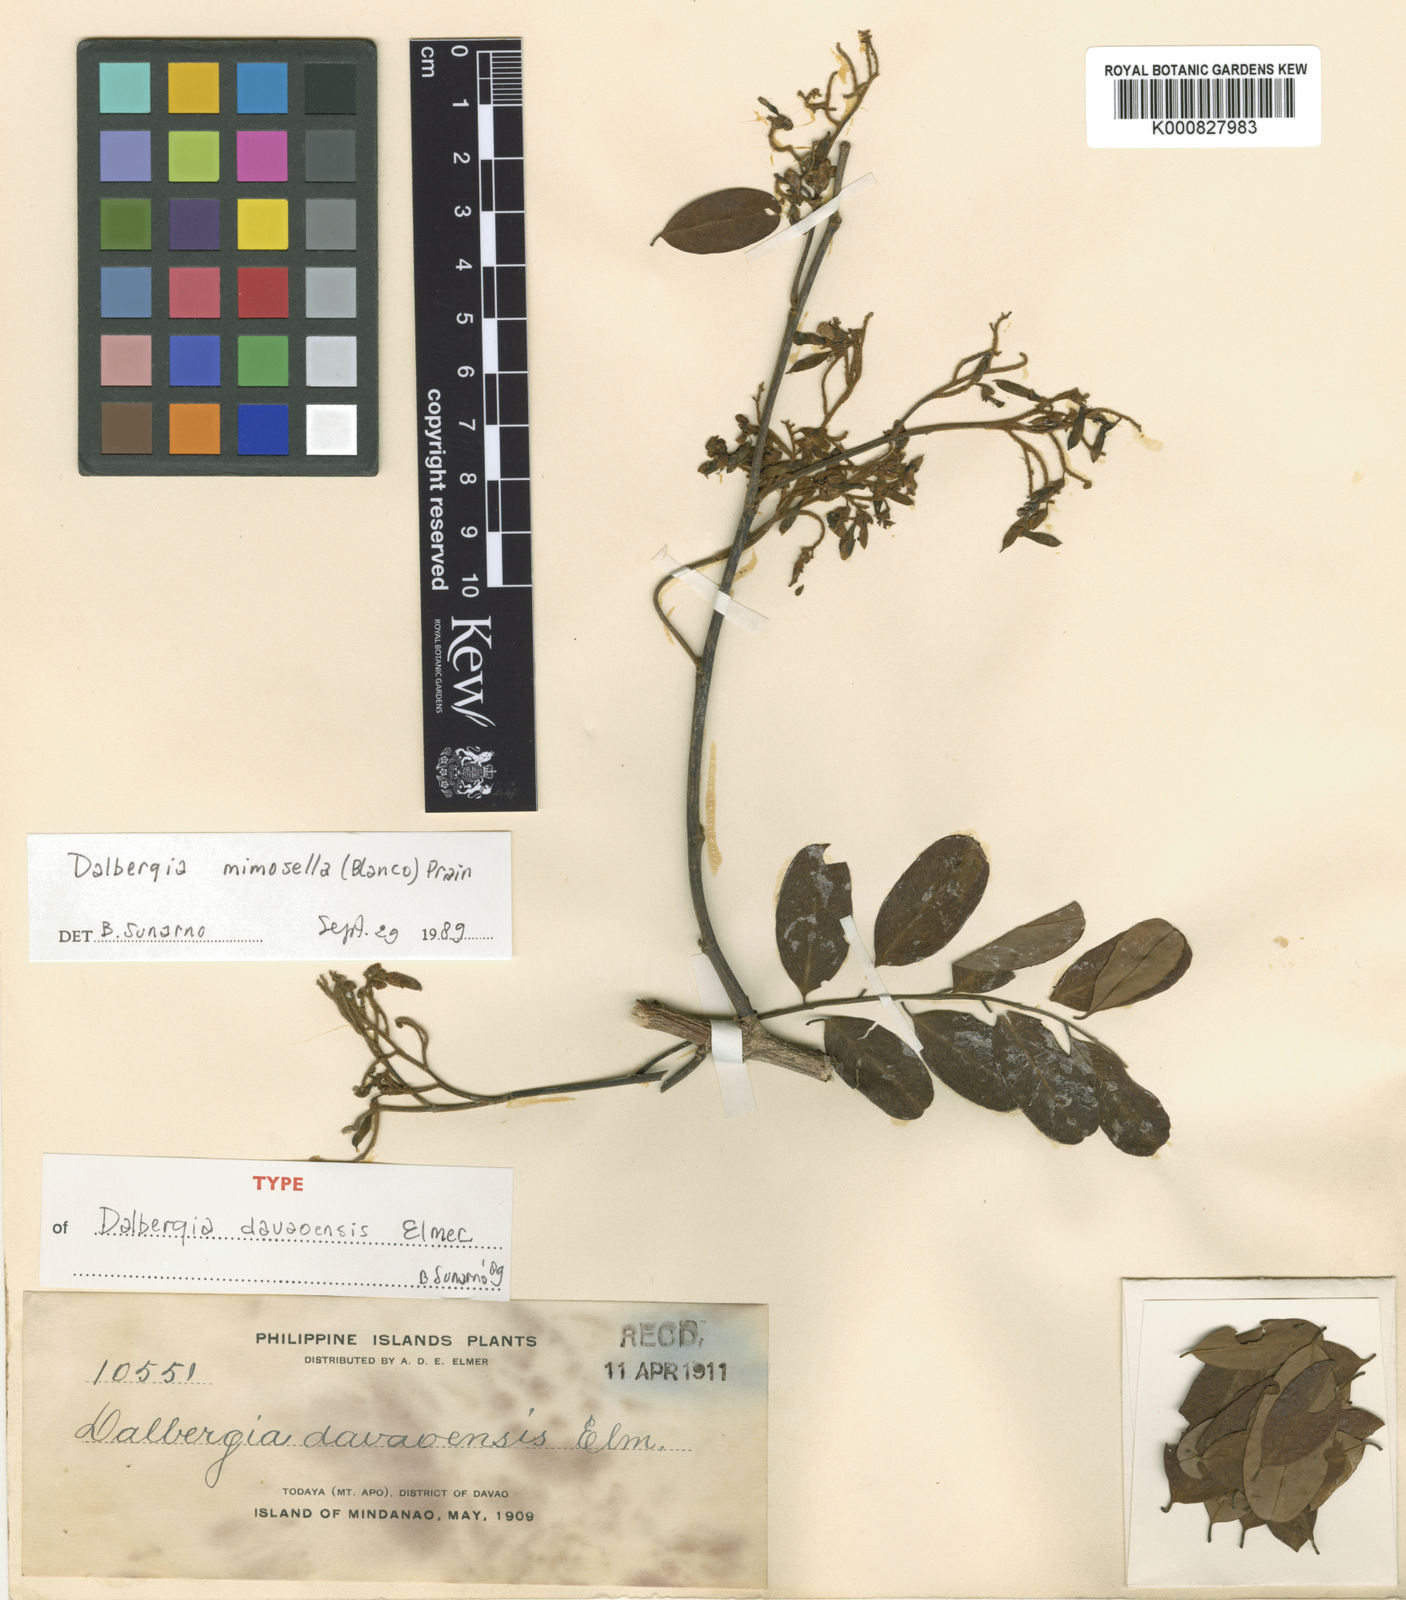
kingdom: Plantae
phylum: Tracheophyta
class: Magnoliopsida
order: Fabales
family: Fabaceae
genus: Dalbergia
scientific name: Dalbergia mimosella
